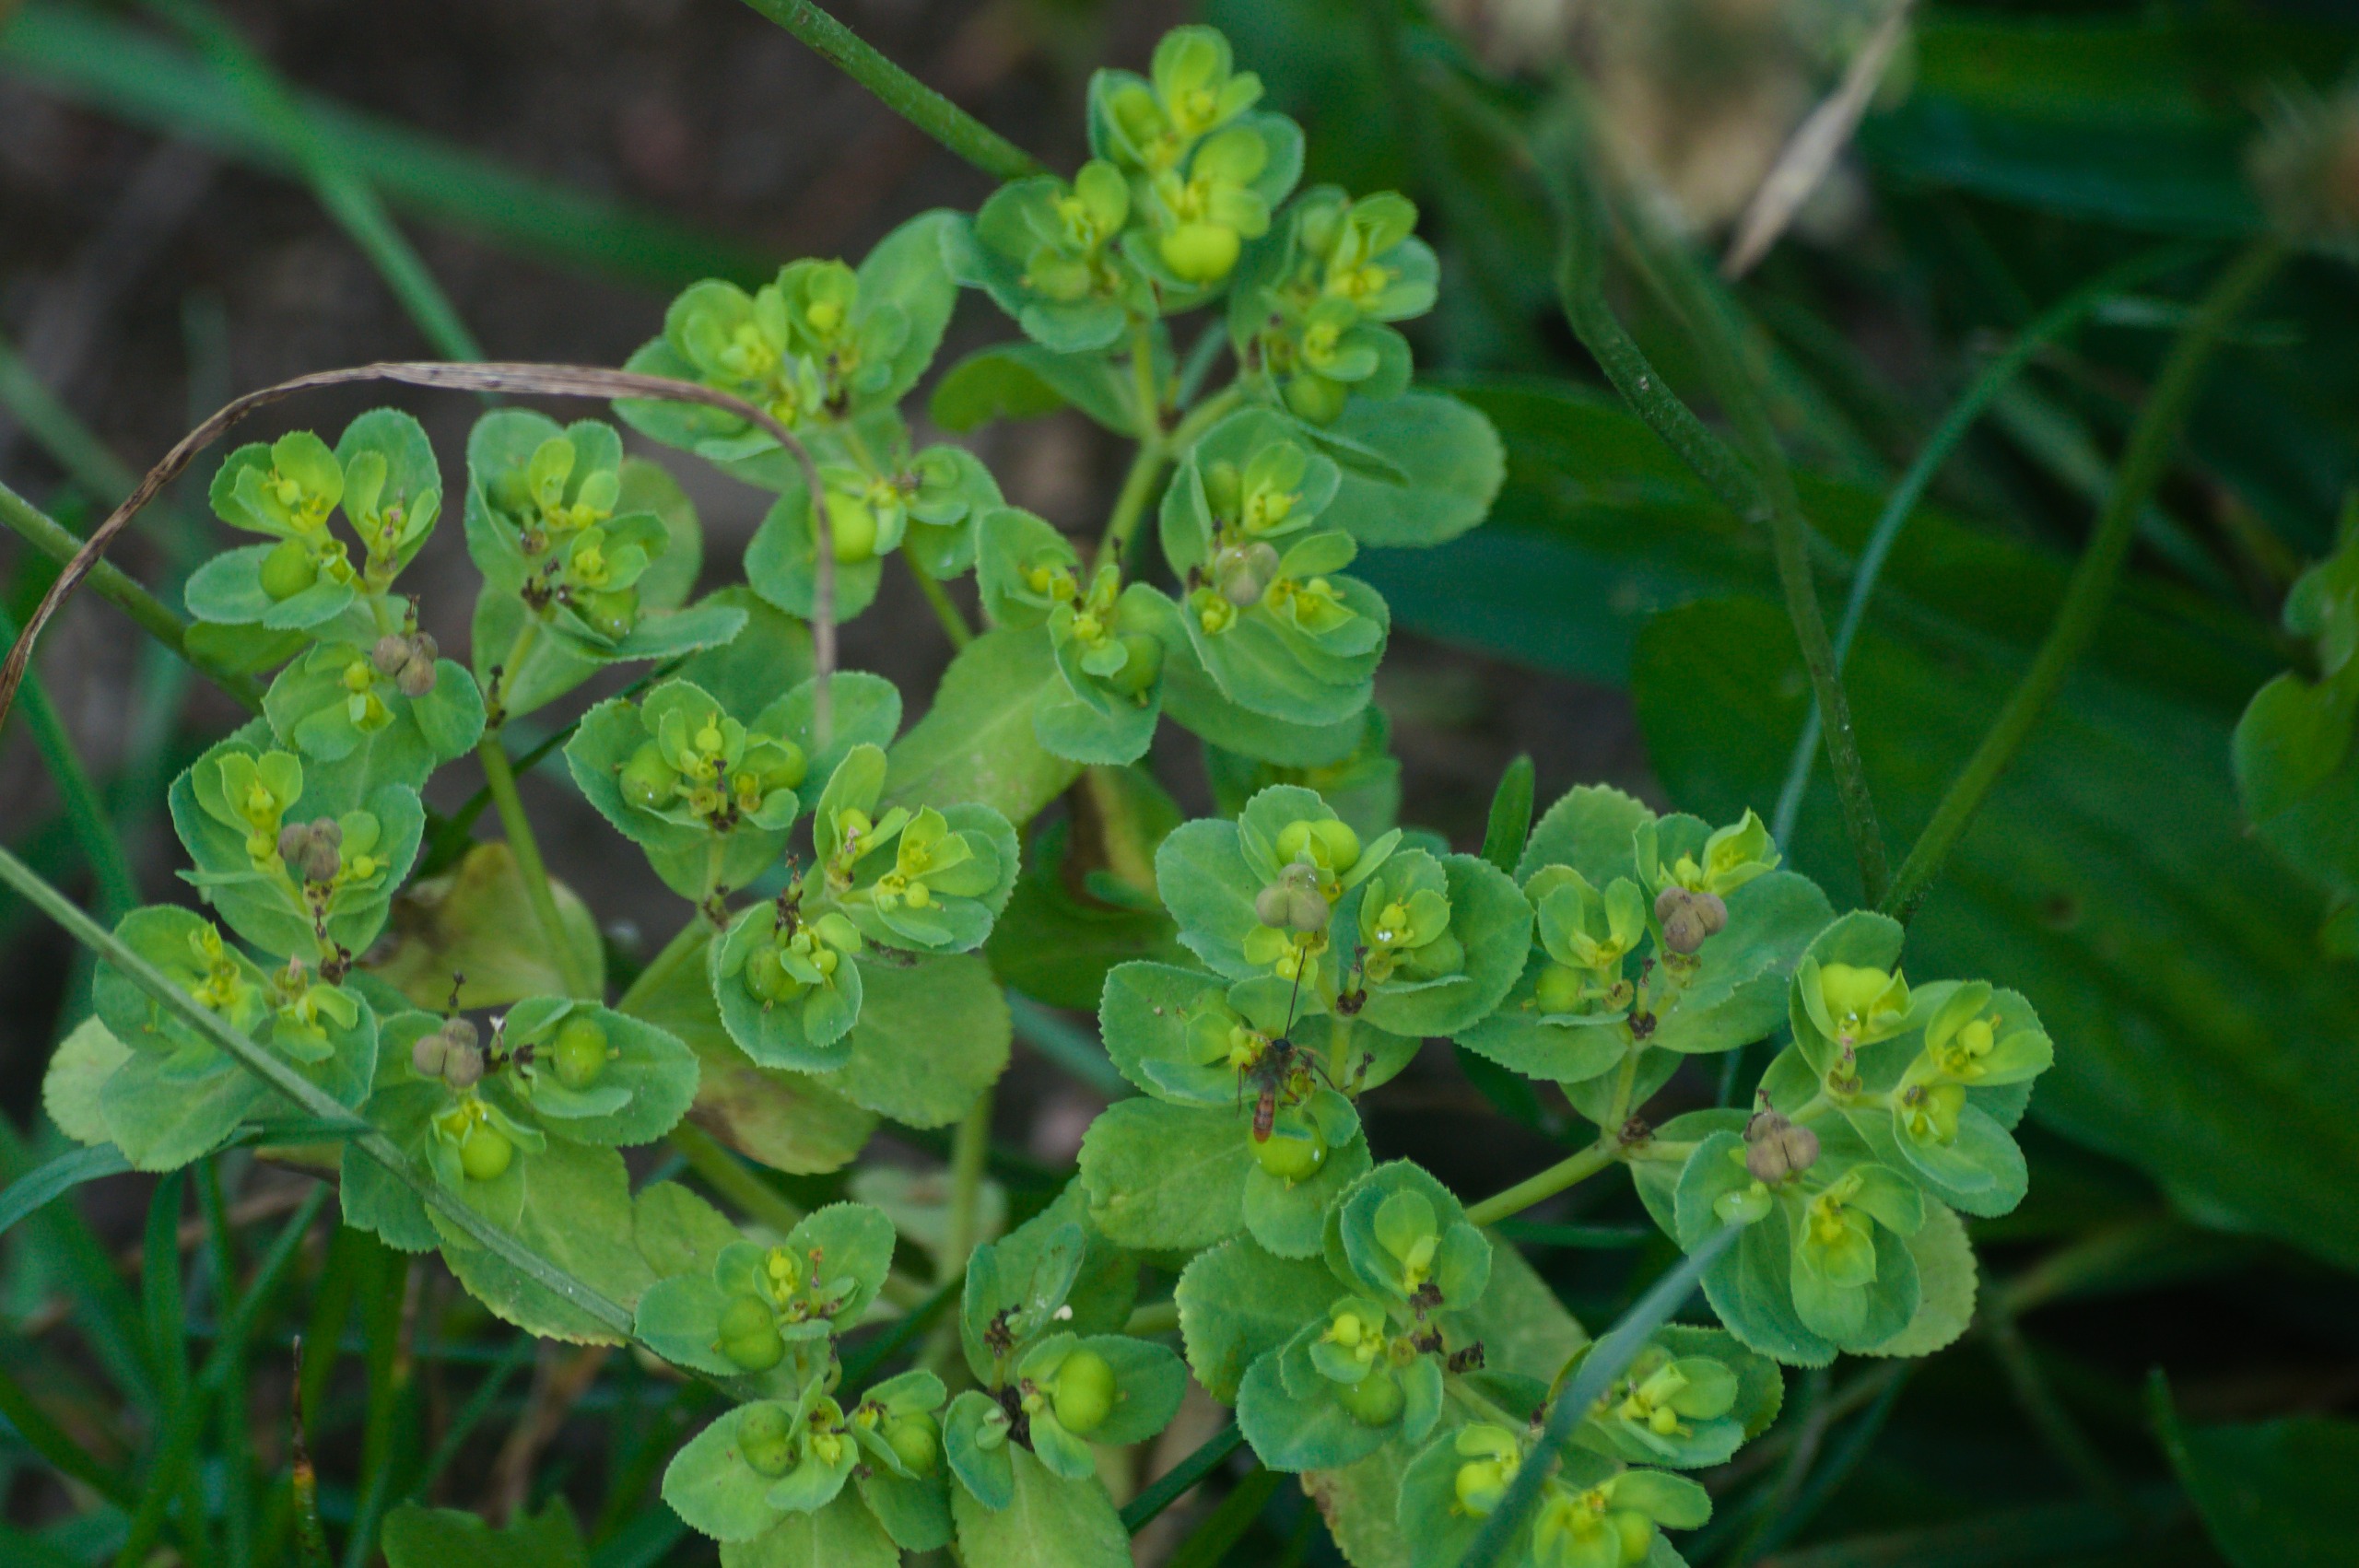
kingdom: Plantae
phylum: Tracheophyta
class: Magnoliopsida
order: Malpighiales
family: Euphorbiaceae
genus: Euphorbia
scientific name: Euphorbia helioscopia
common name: Skærm-vortemælk
